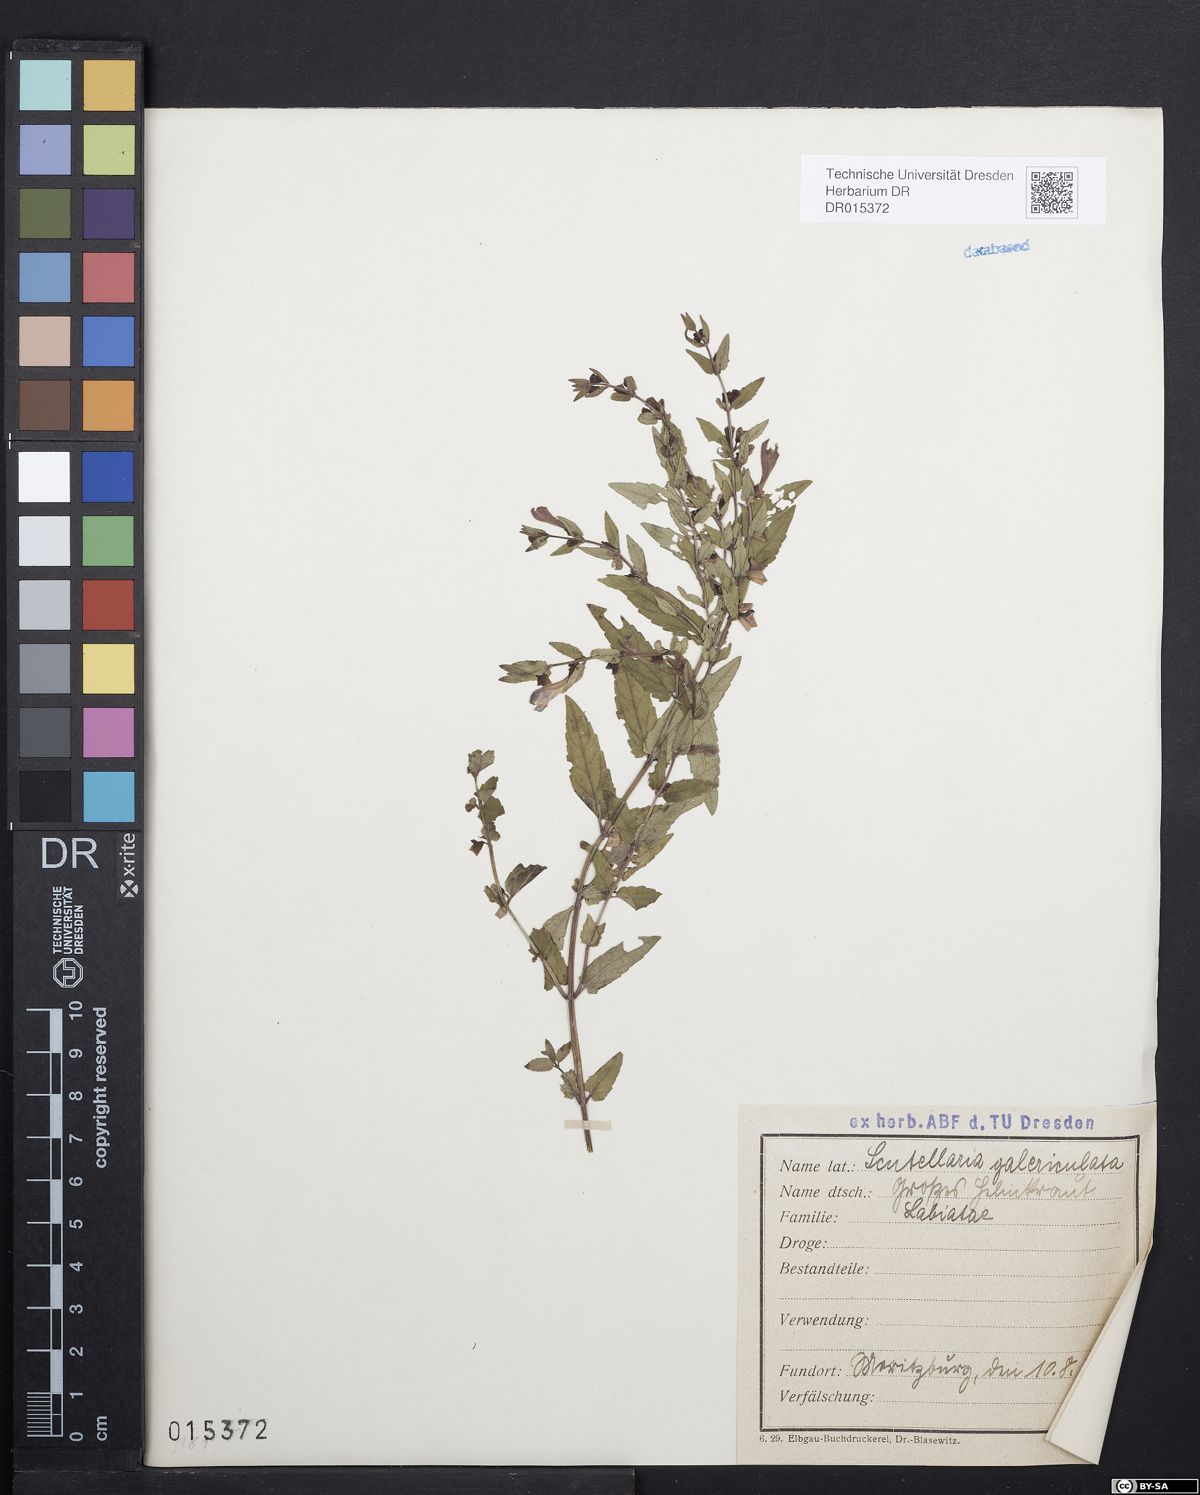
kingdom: Plantae
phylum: Tracheophyta
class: Magnoliopsida
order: Lamiales
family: Lamiaceae
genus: Scutellaria
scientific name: Scutellaria galericulata
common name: Skullcap
